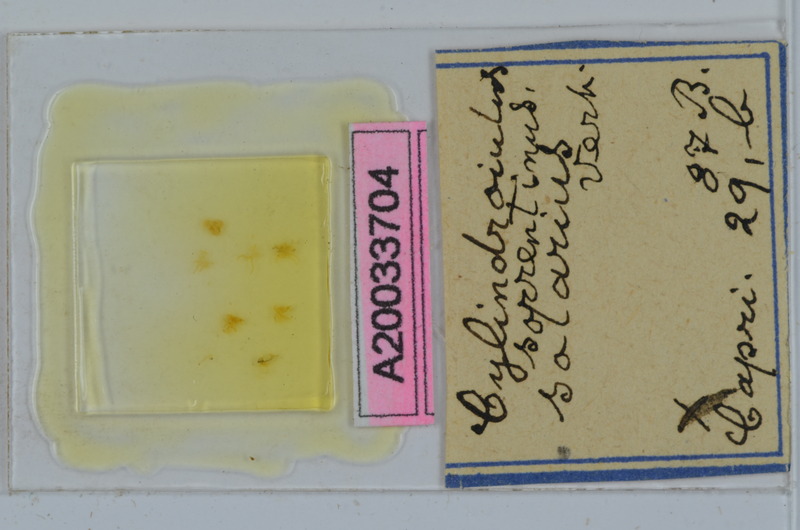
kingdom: Animalia
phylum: Arthropoda
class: Diplopoda
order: Julida
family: Julidae
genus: Cylindroiulus
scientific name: Cylindroiulus sorrentinus
